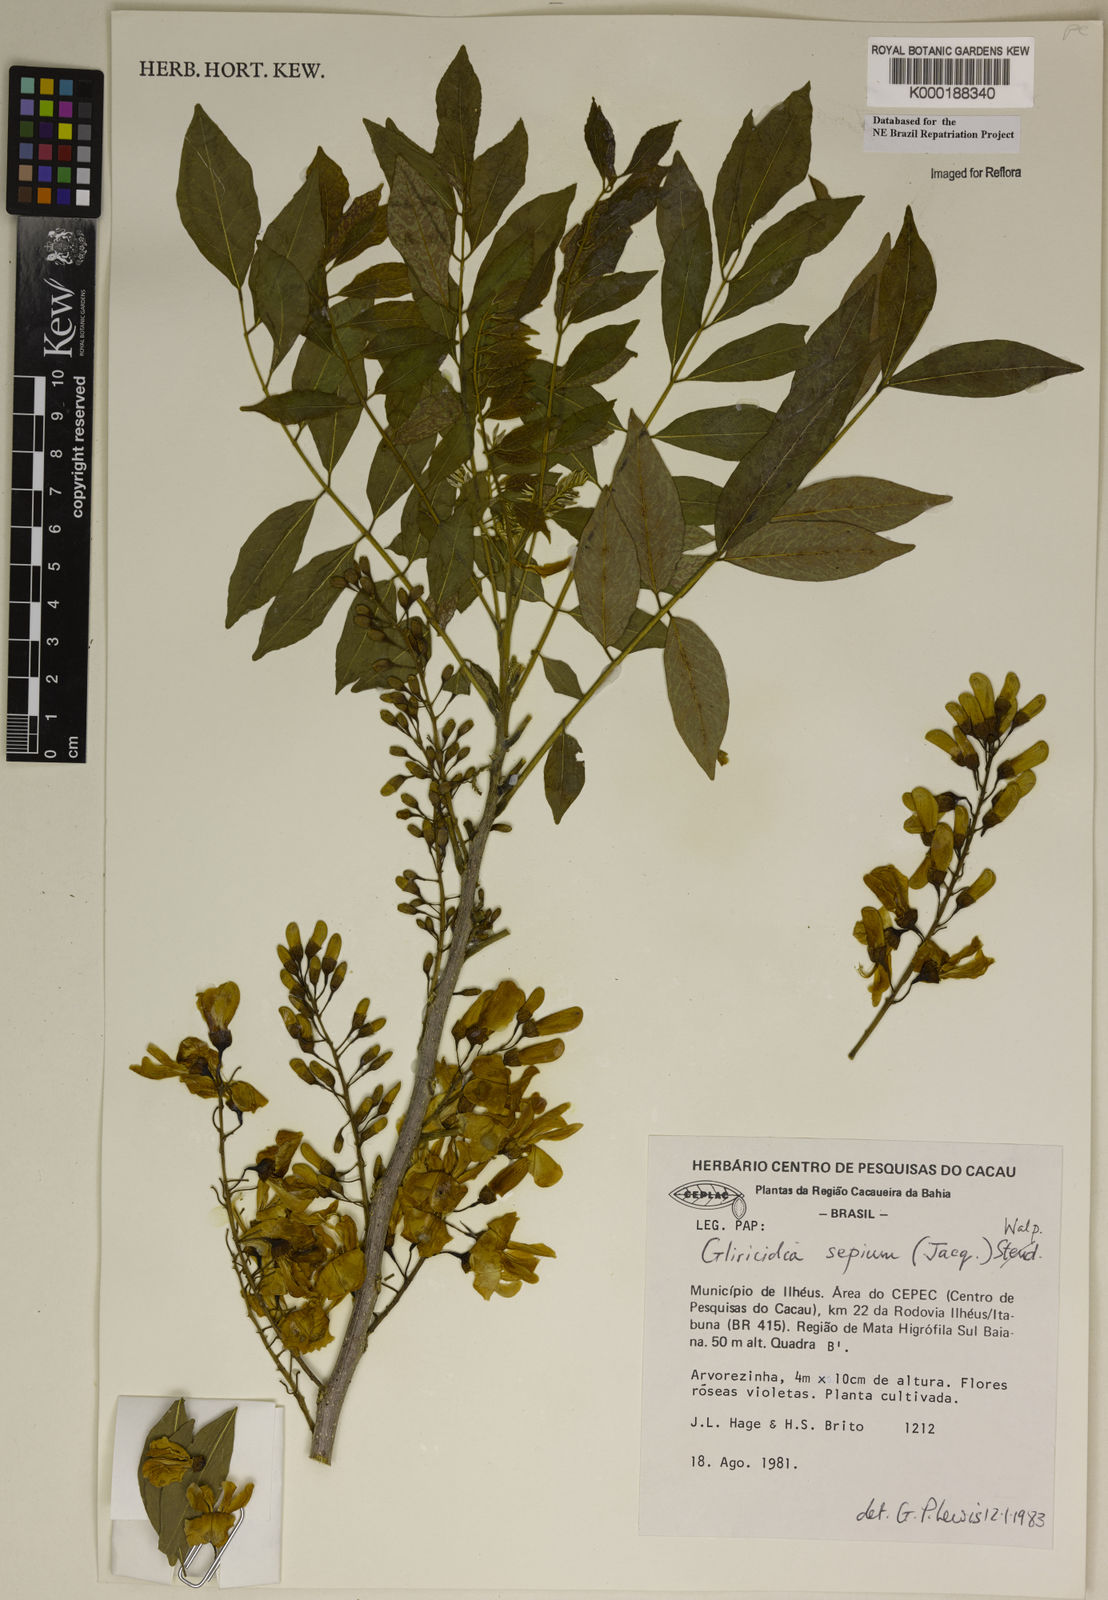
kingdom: Plantae
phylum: Tracheophyta
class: Magnoliopsida
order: Fabales
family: Fabaceae
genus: Gliricidia
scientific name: Gliricidia
